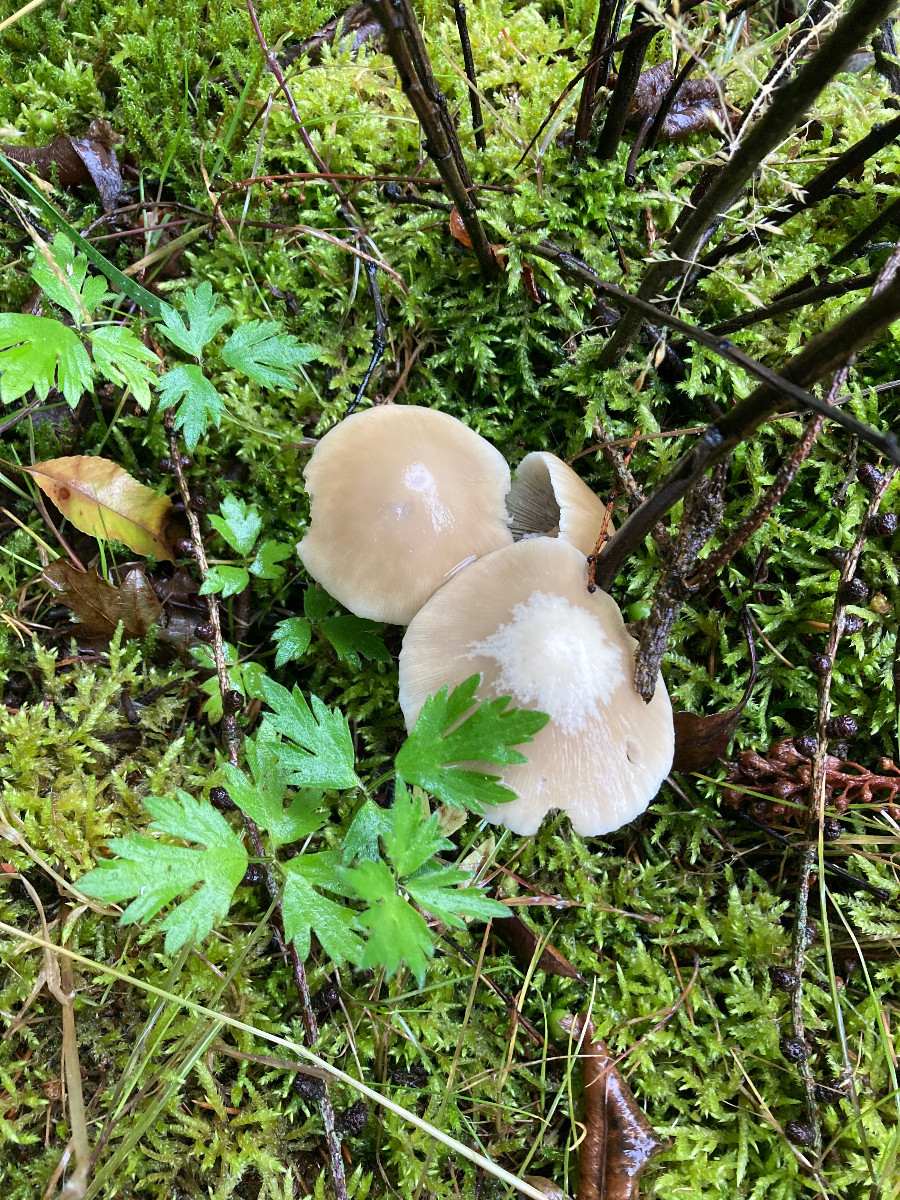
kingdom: Fungi
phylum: Basidiomycota
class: Agaricomycetes
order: Agaricales
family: Psathyrellaceae
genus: Candolleomyces
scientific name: Candolleomyces candolleanus
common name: Candolles mørkhat
